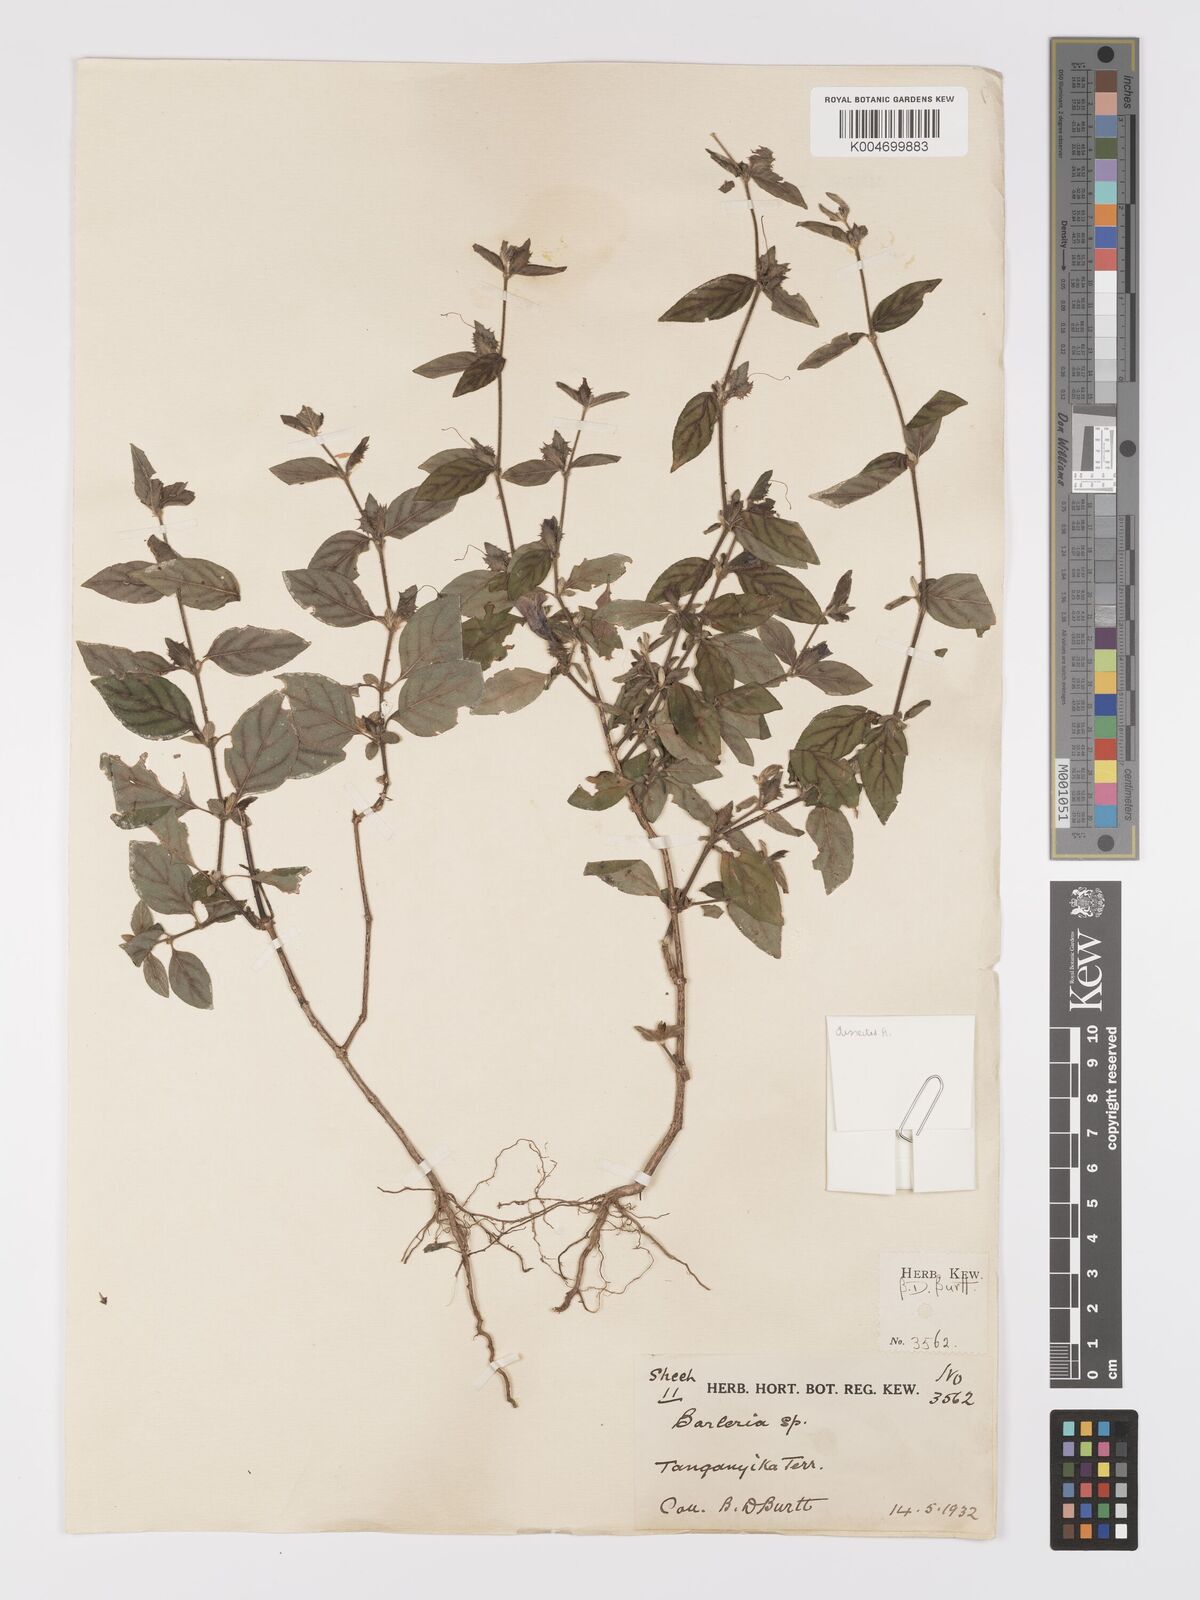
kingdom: Plantae
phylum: Tracheophyta
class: Magnoliopsida
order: Lamiales
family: Acanthaceae
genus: Barleria
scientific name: Barleria ventricosa
